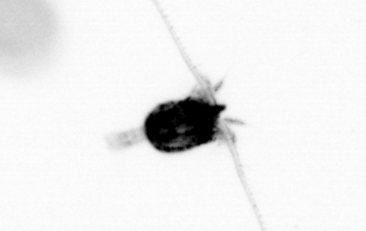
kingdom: Animalia
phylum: Arthropoda
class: Copepoda
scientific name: Copepoda
